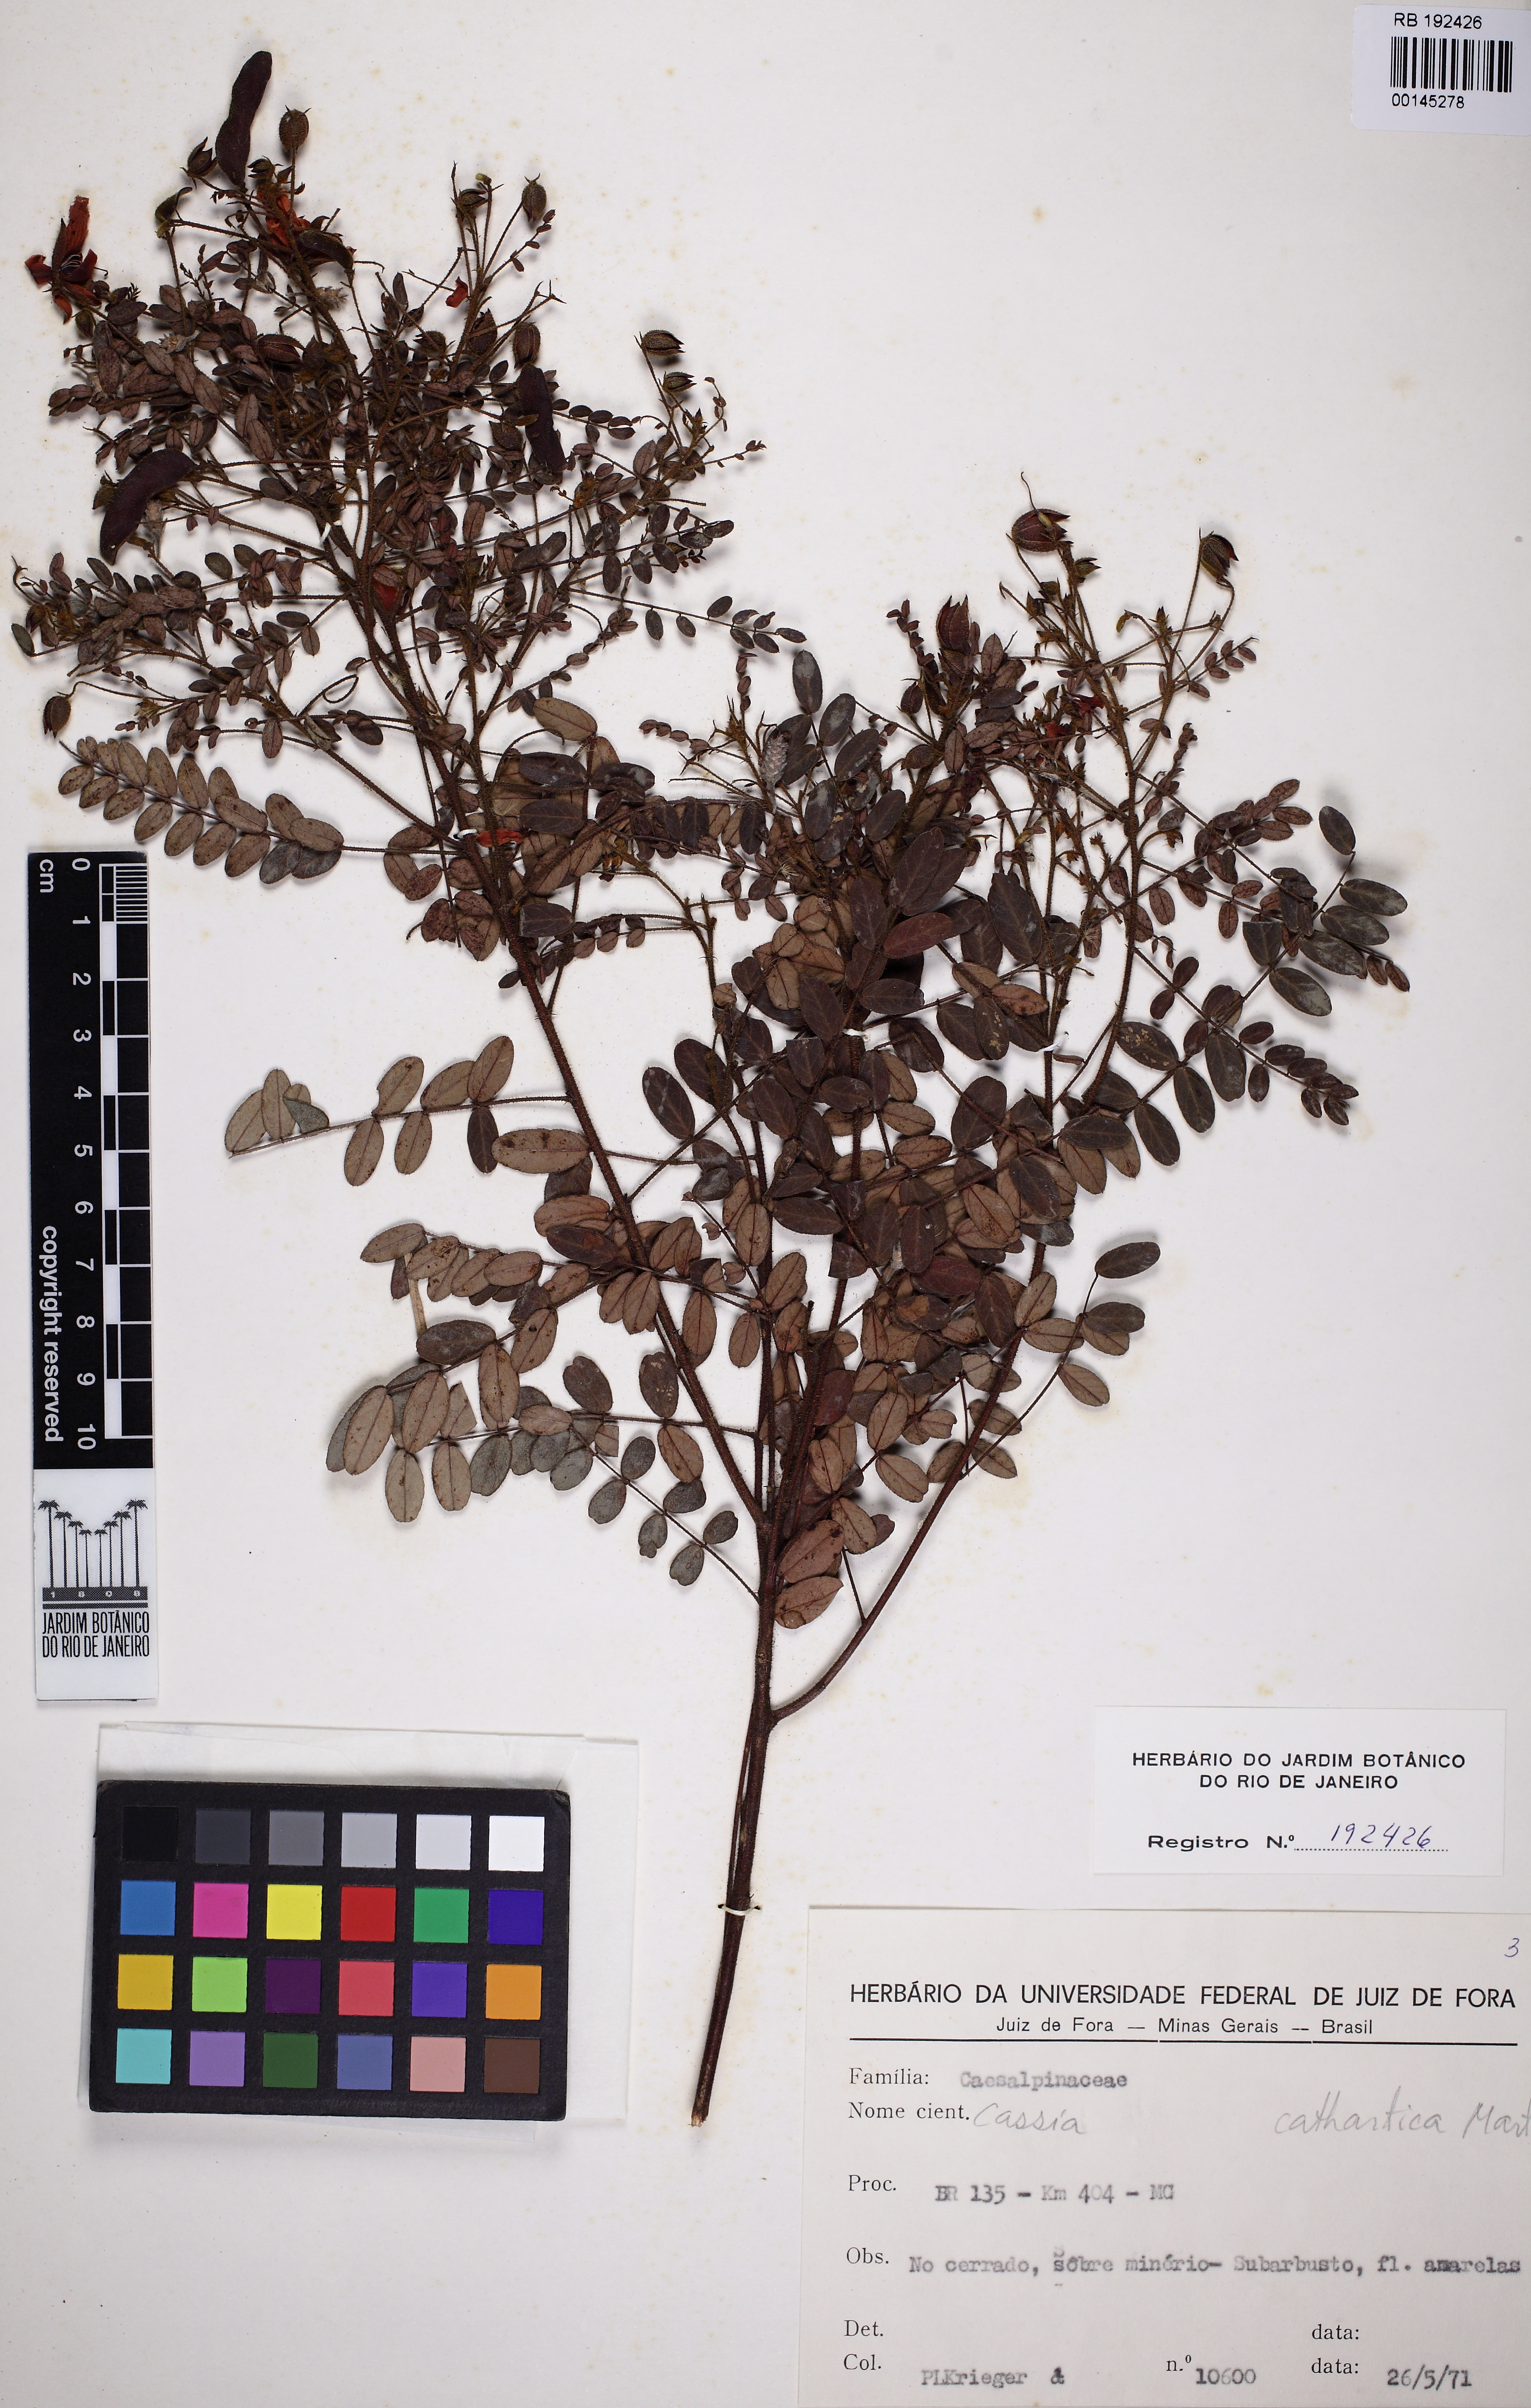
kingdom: Plantae
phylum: Tracheophyta
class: Magnoliopsida
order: Fabales
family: Fabaceae
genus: Chamaecrista
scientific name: Chamaecrista cathartica
